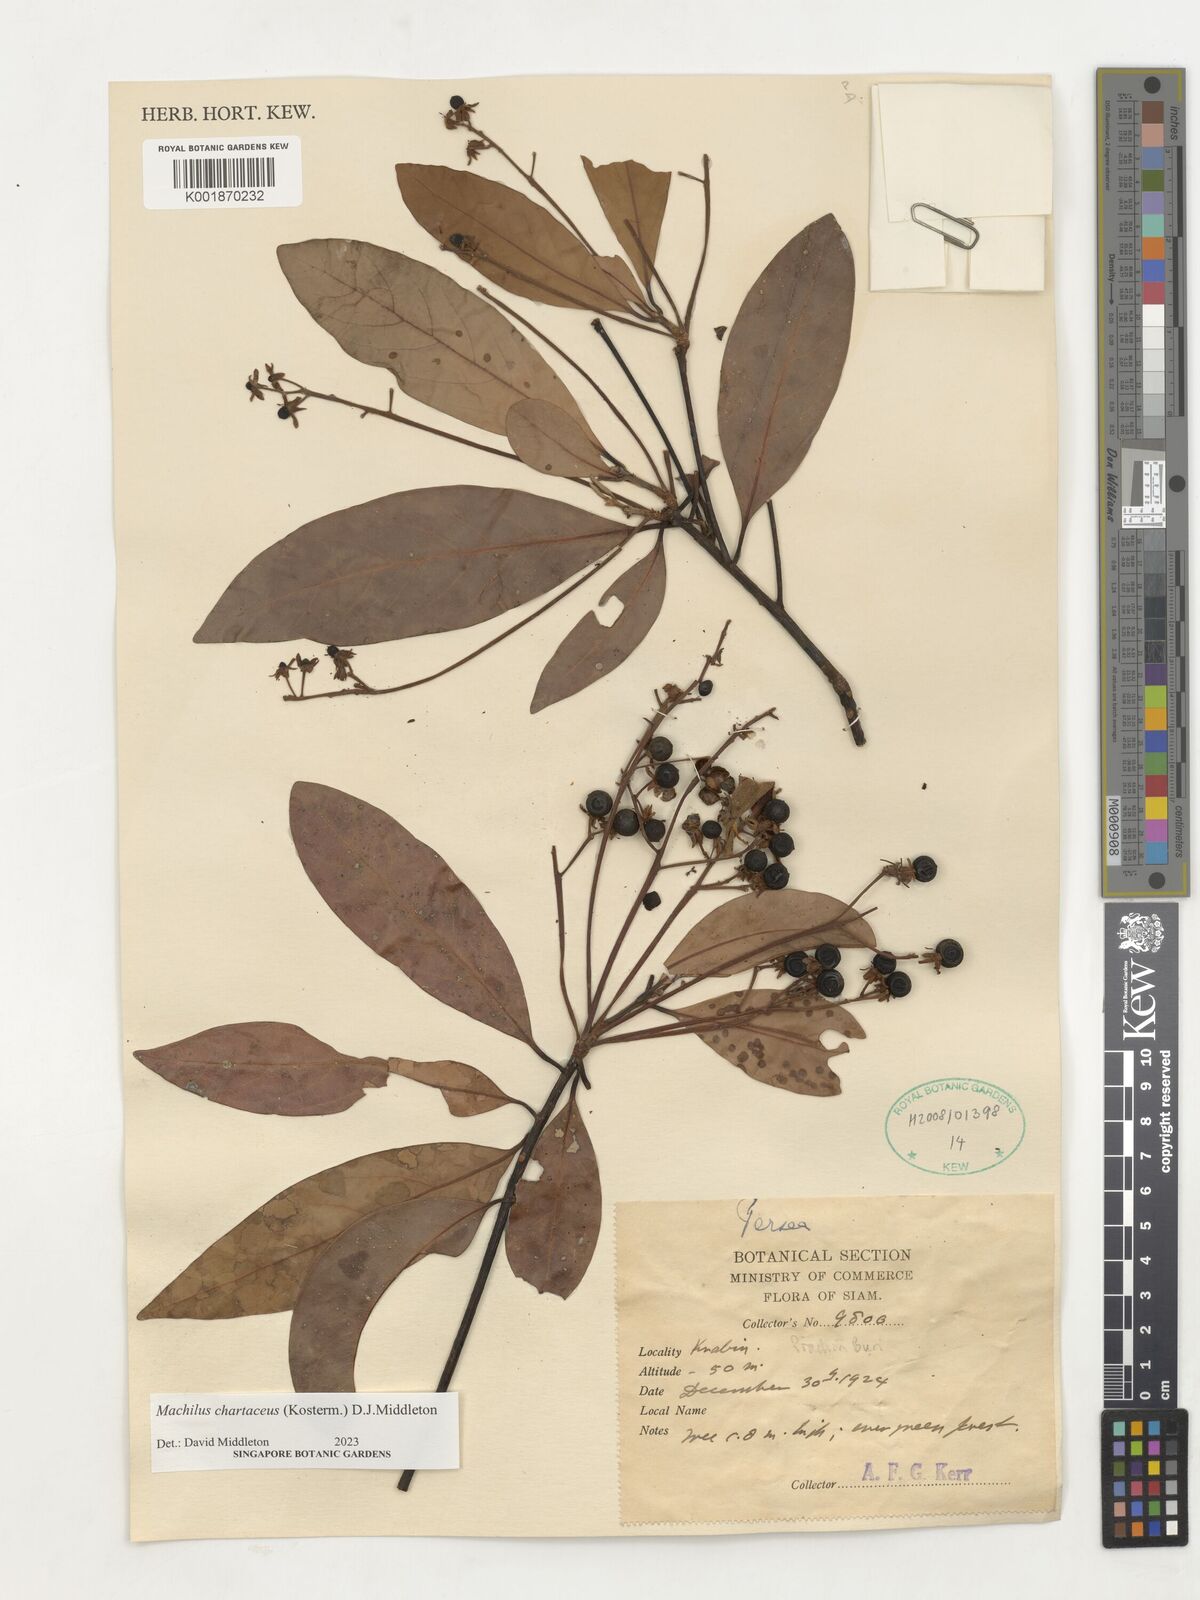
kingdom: Plantae
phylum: Tracheophyta
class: Magnoliopsida
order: Laurales
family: Lauraceae
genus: Machilus
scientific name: Machilus
